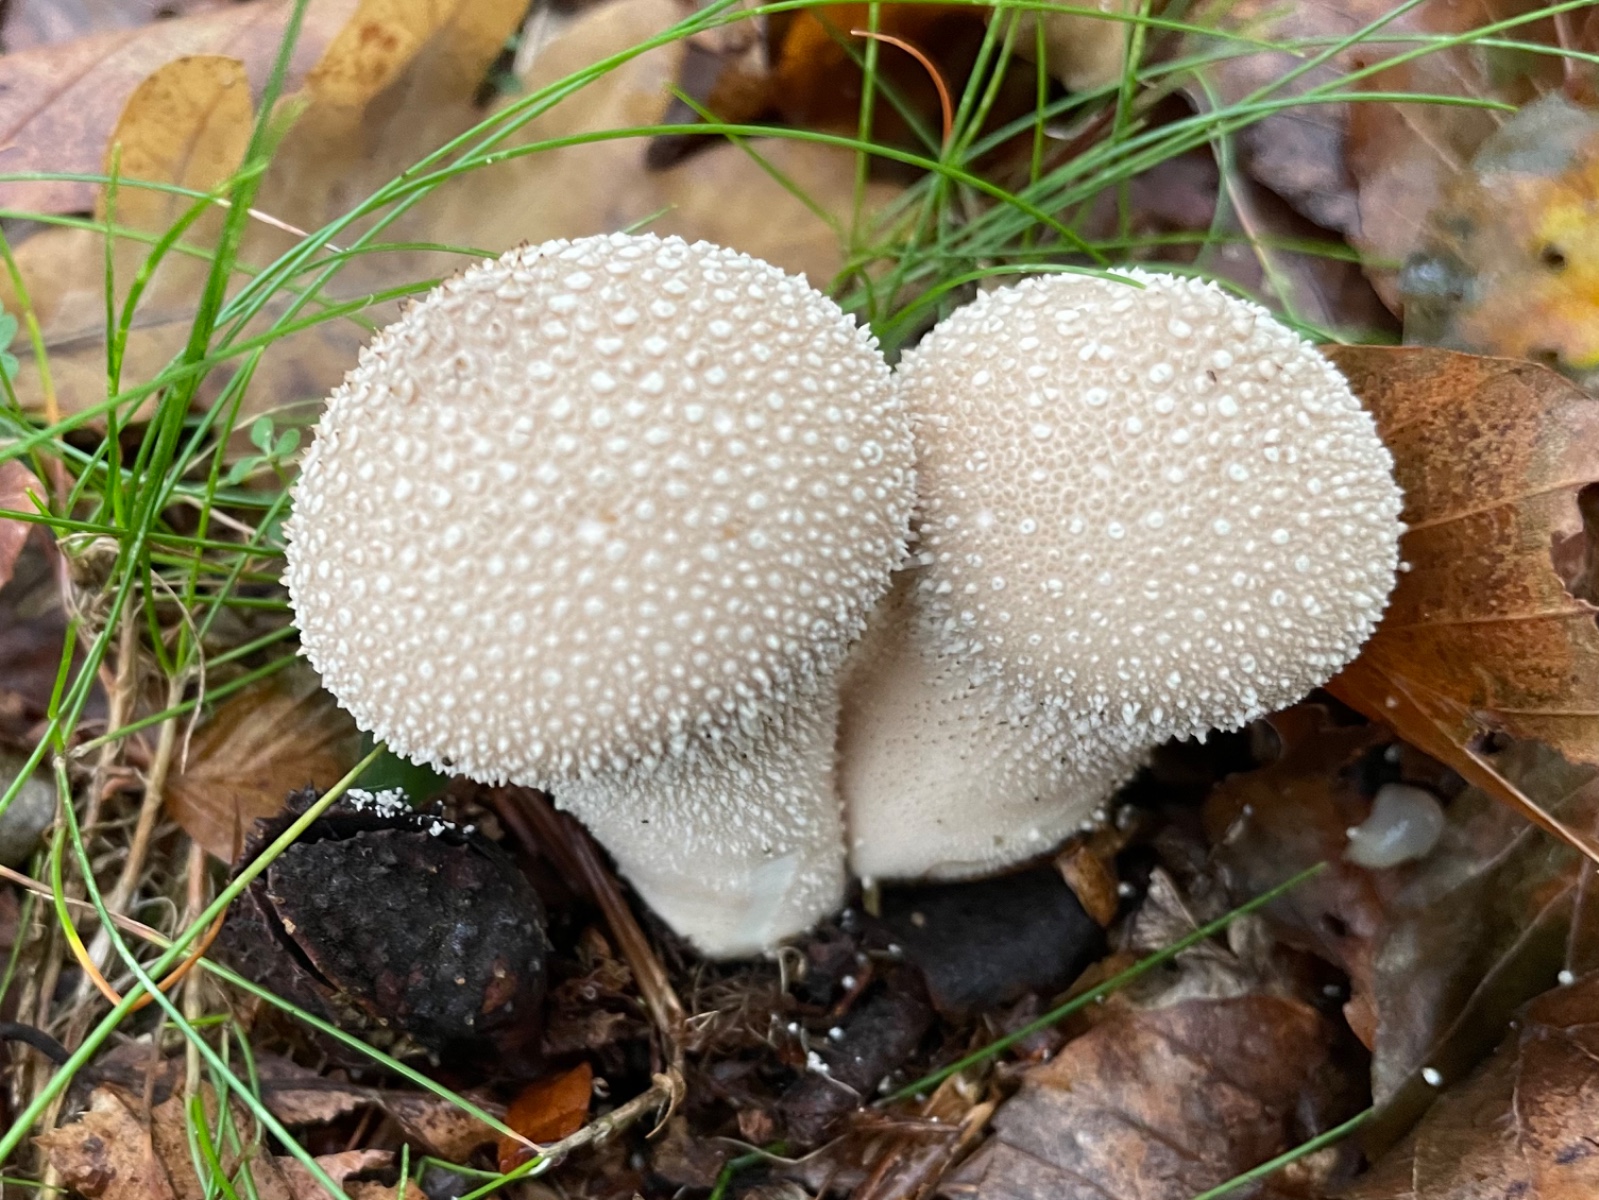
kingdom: Fungi
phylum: Basidiomycota
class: Agaricomycetes
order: Agaricales
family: Lycoperdaceae
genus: Lycoperdon
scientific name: Lycoperdon perlatum
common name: krystal-støvbold
